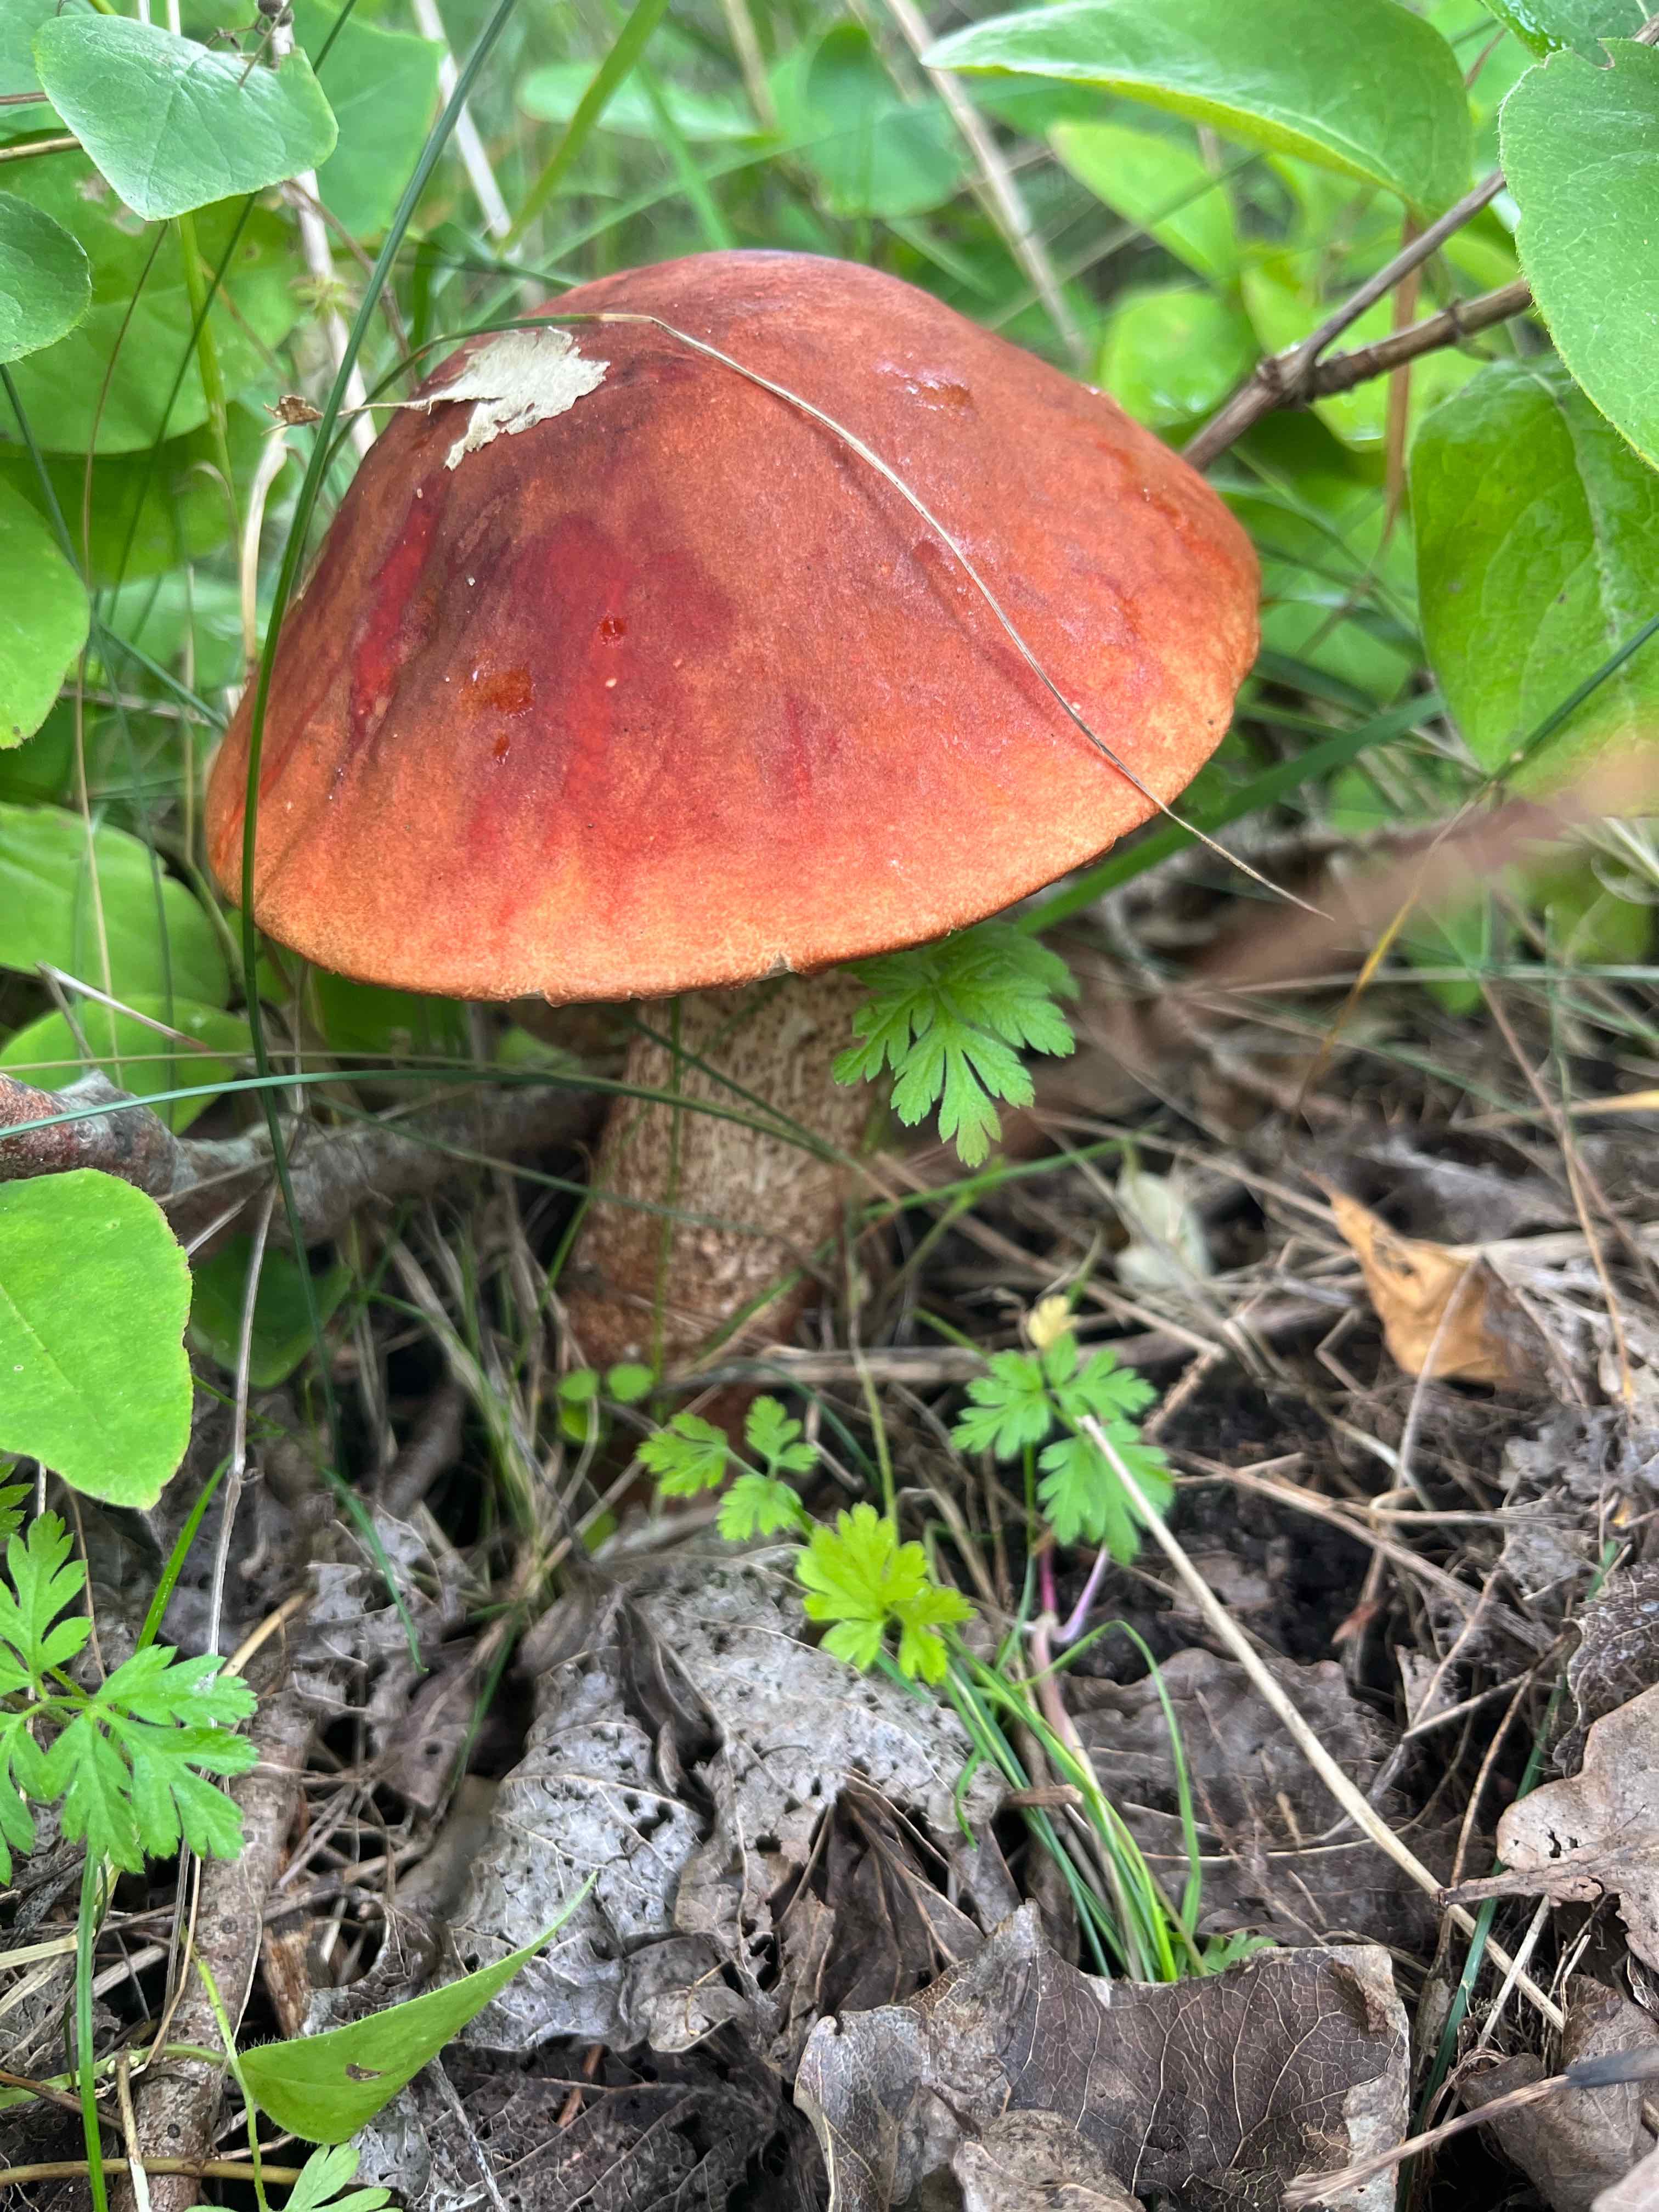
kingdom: Fungi
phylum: Basidiomycota
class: Agaricomycetes
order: Boletales
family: Boletaceae
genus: Leccinum
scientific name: Leccinum aurantiacum
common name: rustrød skælrørhat
